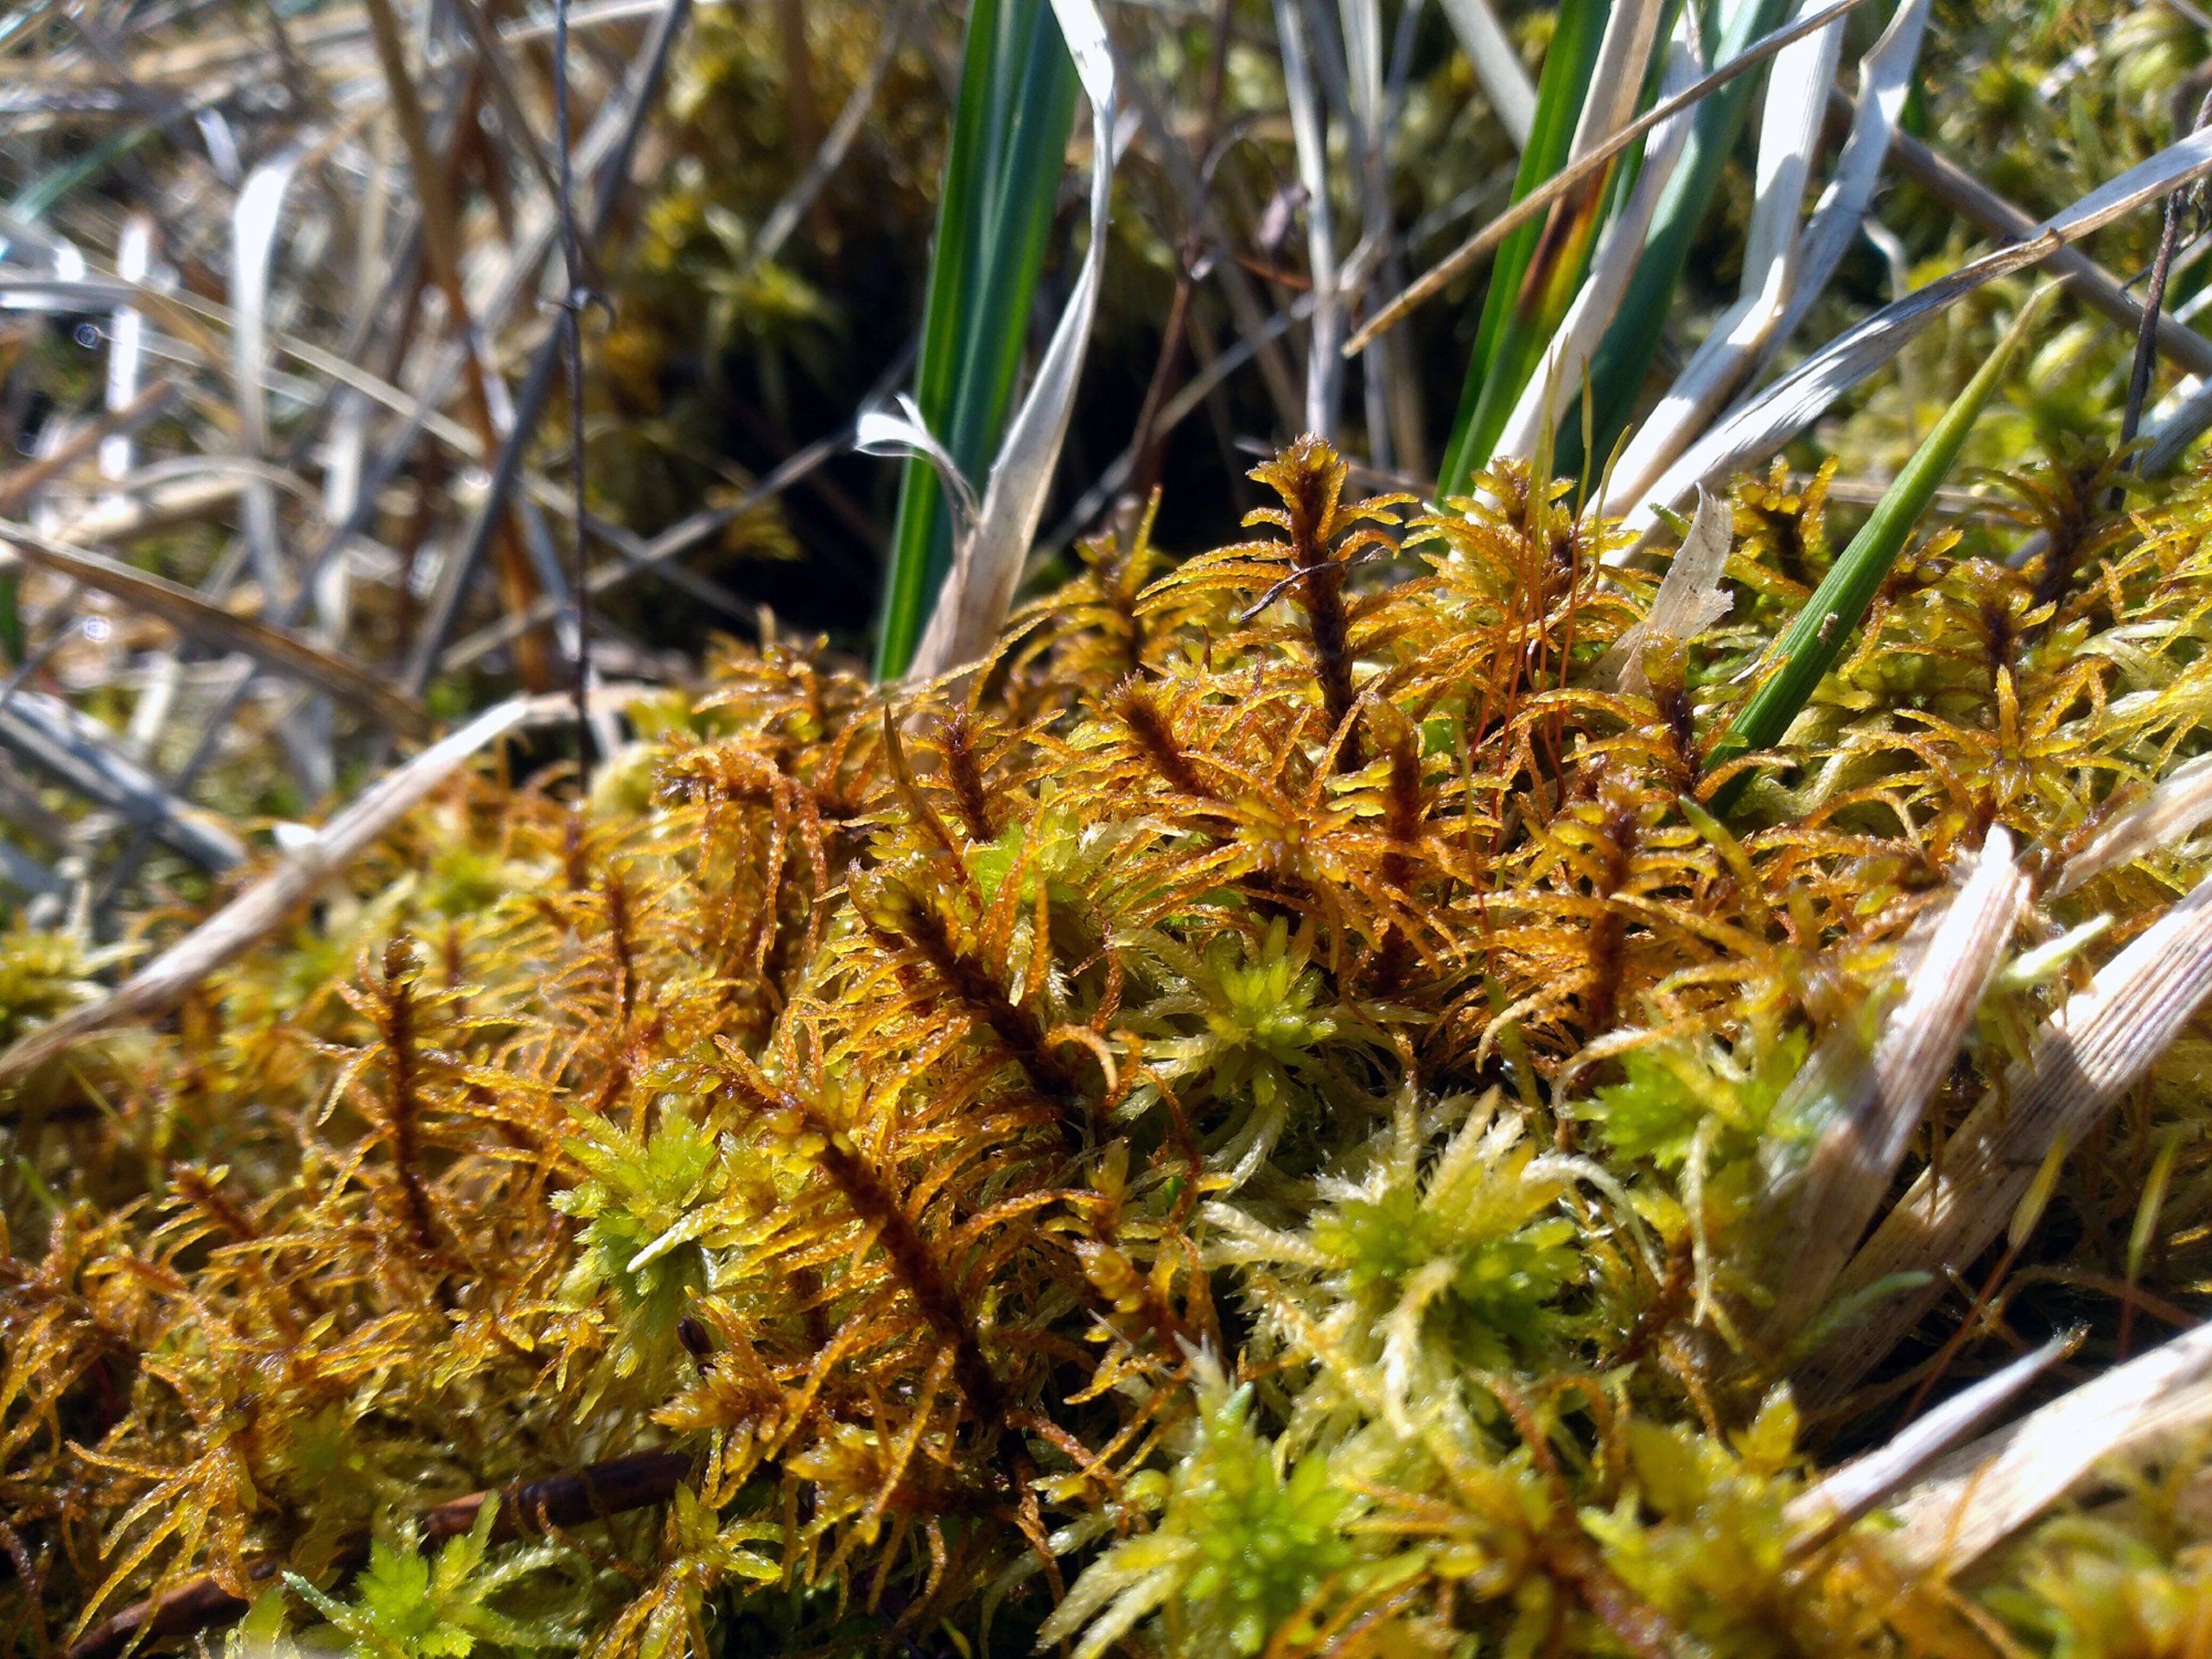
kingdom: Plantae
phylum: Bryophyta
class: Bryopsida
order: Hypnales
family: Helodiaceae
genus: Helodium
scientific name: Helodium blandowii
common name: Kær-gyldenmos
